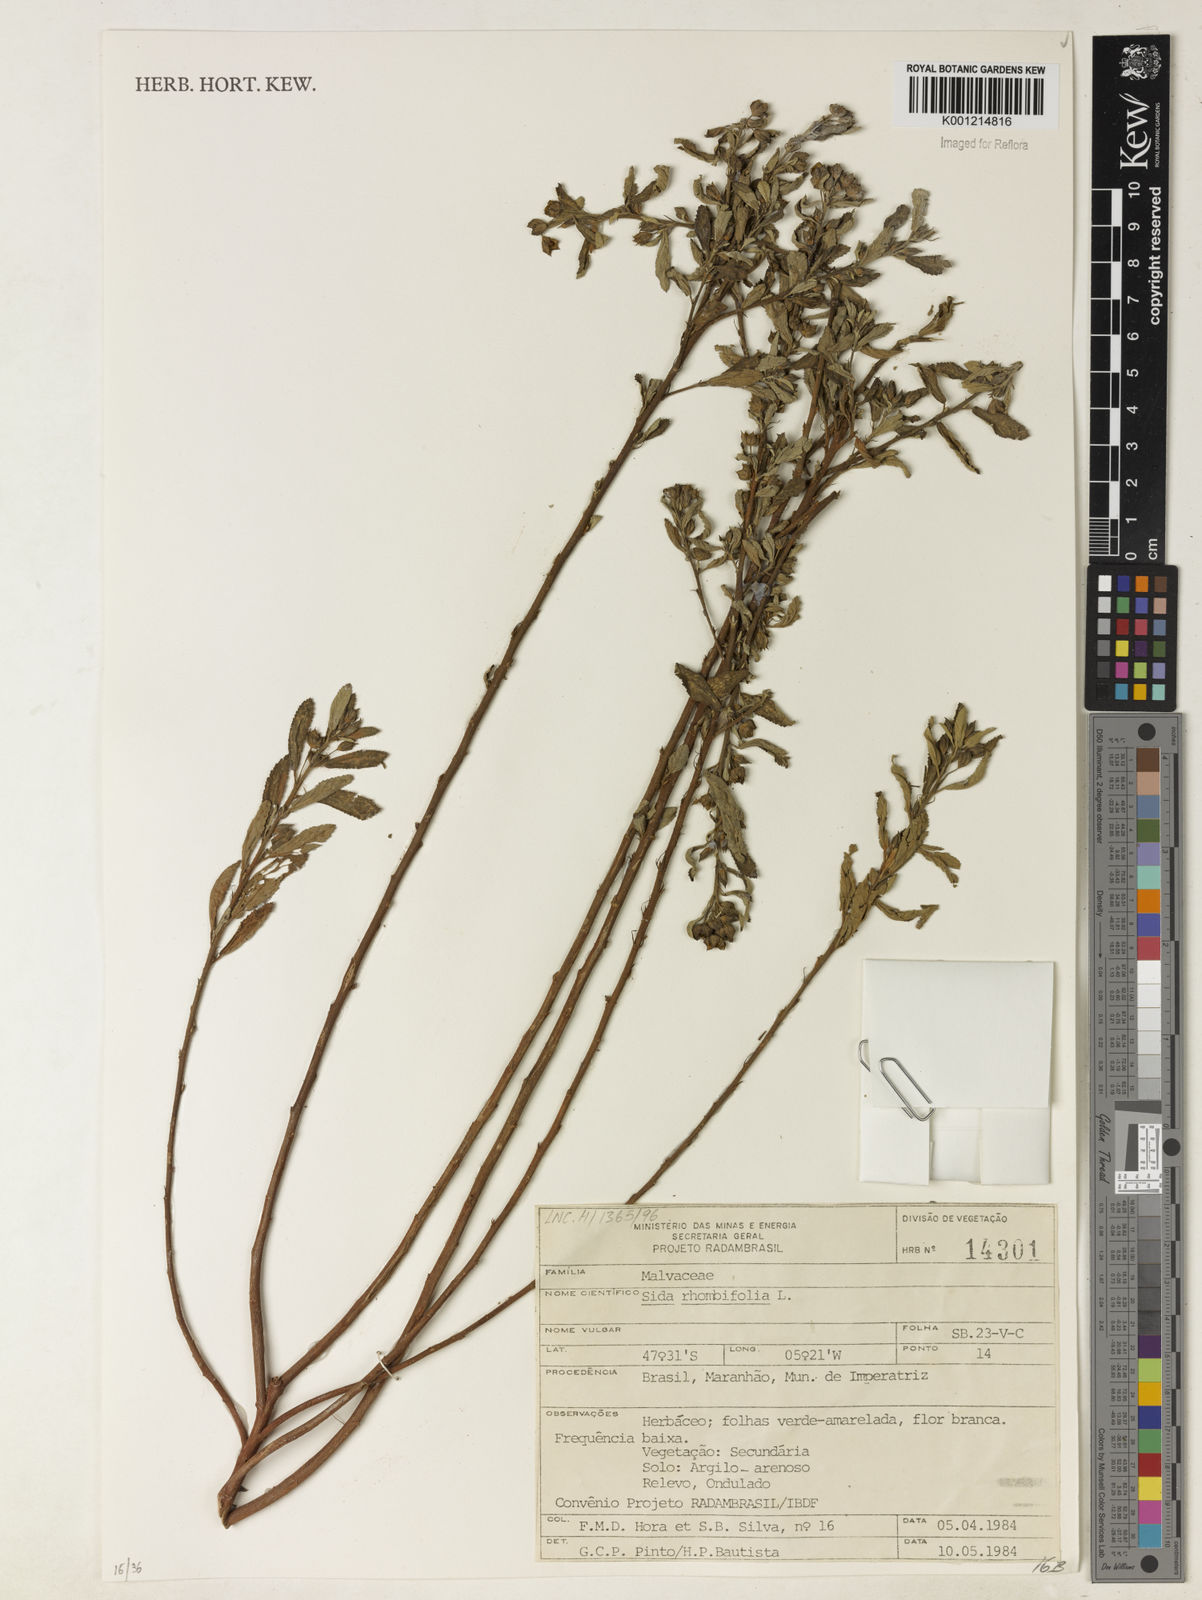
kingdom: Plantae
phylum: Tracheophyta
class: Magnoliopsida
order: Malvales
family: Malvaceae
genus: Sida
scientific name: Sida rhombifolia
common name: Queensland-hemp
